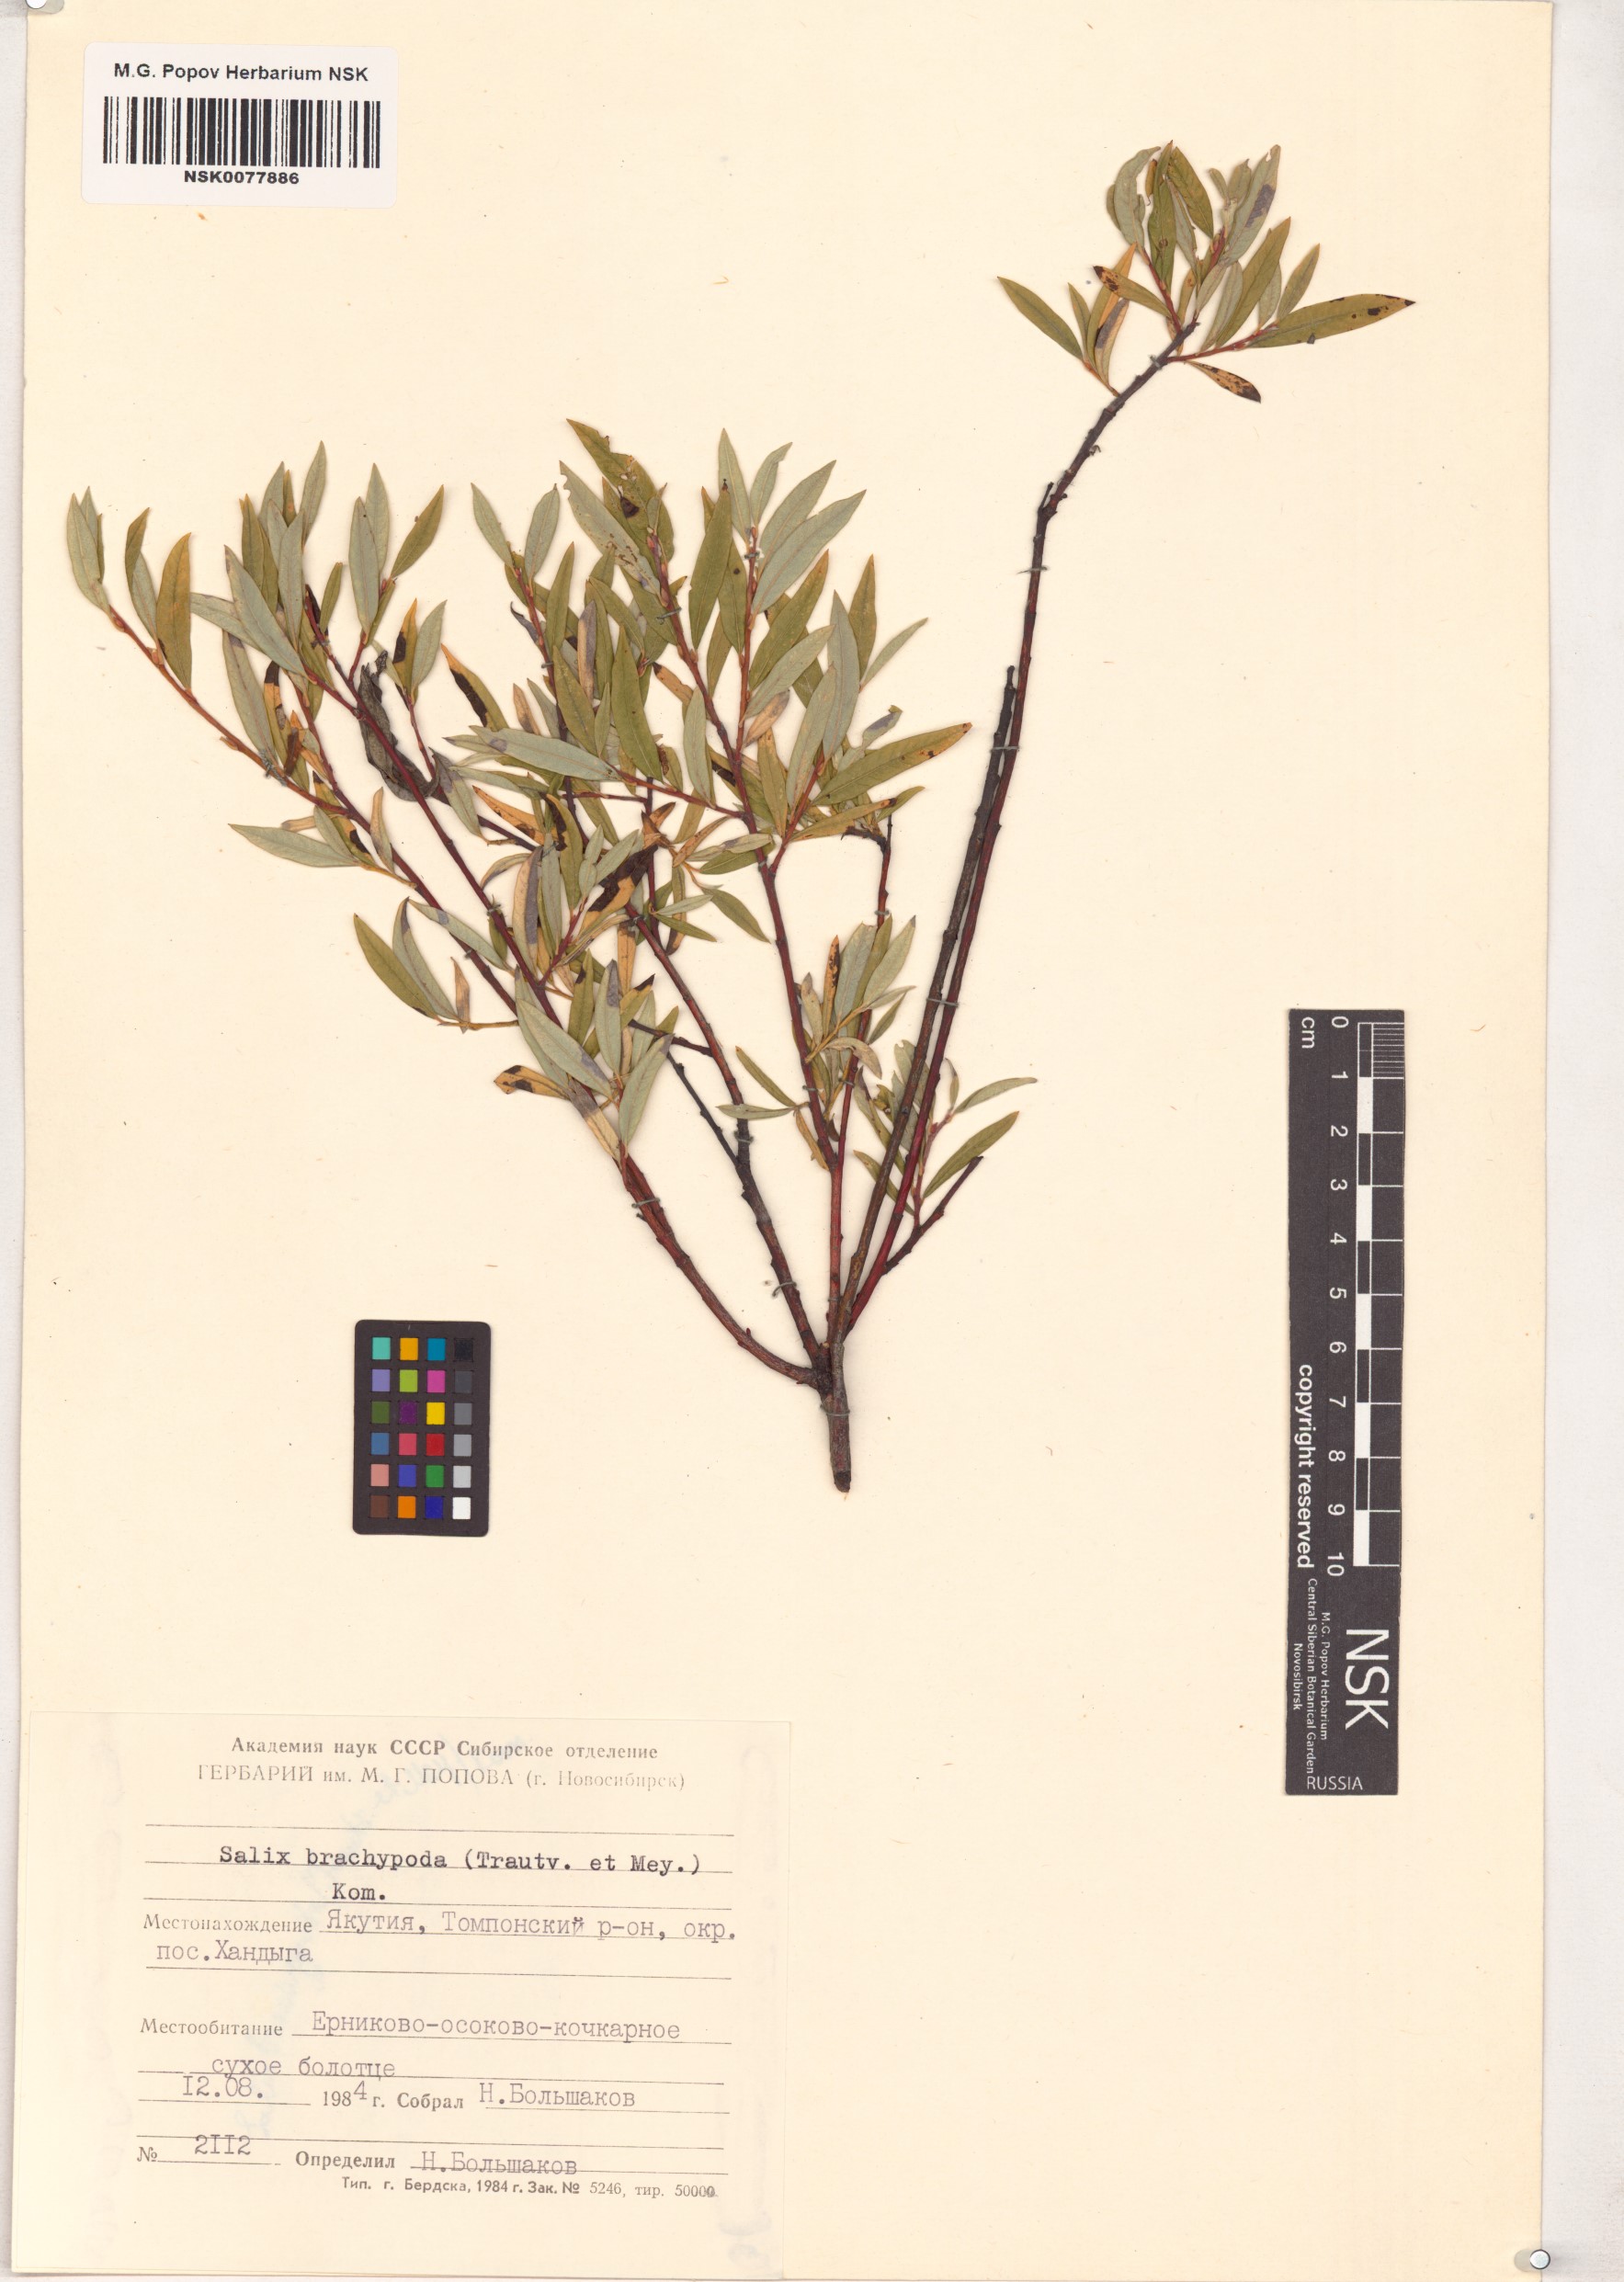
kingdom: Plantae
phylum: Tracheophyta
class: Magnoliopsida
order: Malpighiales
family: Salicaceae
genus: Salix
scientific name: Salix brachypoda
